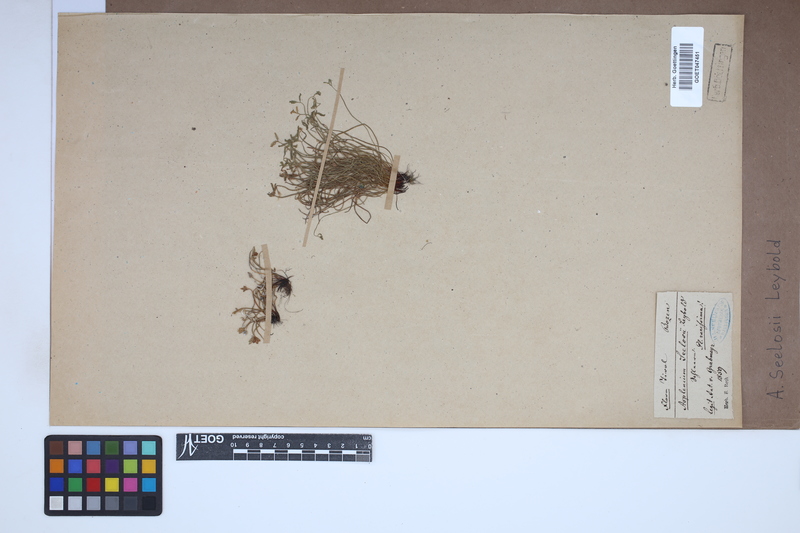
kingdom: Plantae
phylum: Tracheophyta
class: Polypodiopsida
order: Polypodiales
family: Aspleniaceae
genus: Asplenium
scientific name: Asplenium seelosii
